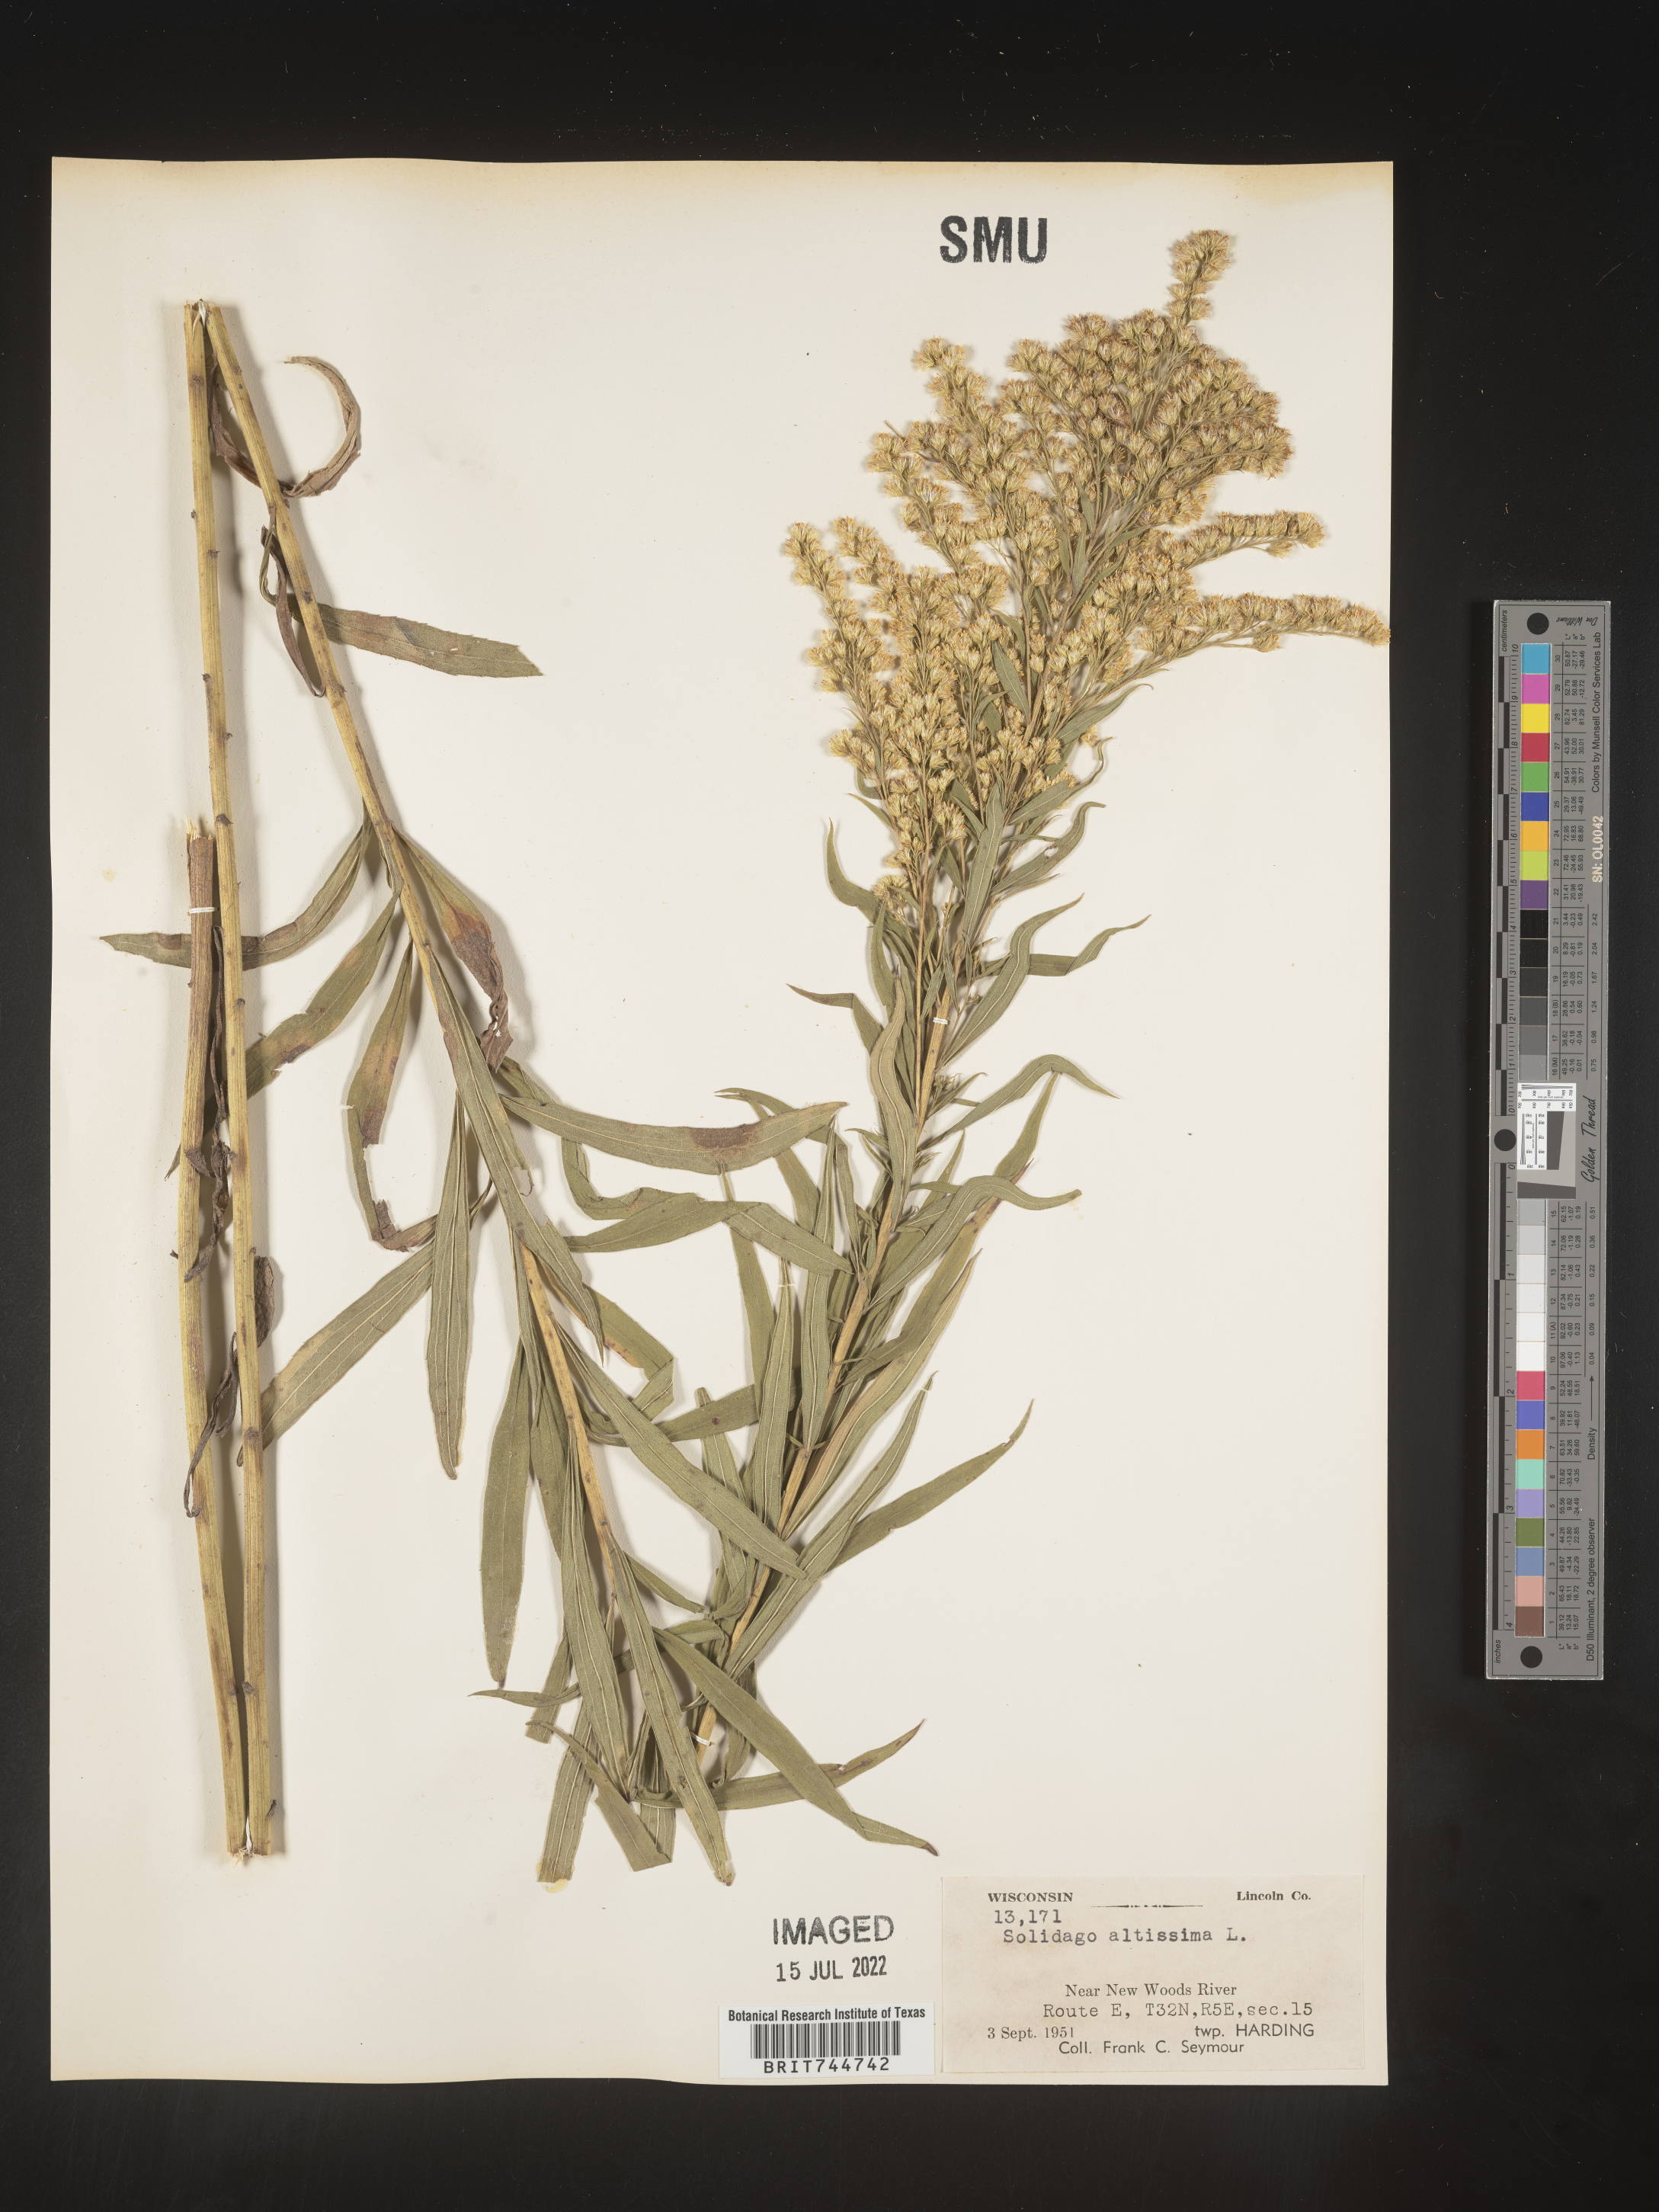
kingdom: Plantae
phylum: Tracheophyta
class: Magnoliopsida
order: Asterales
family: Asteraceae
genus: Solidago
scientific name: Solidago canadensis
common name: Canada goldenrod
